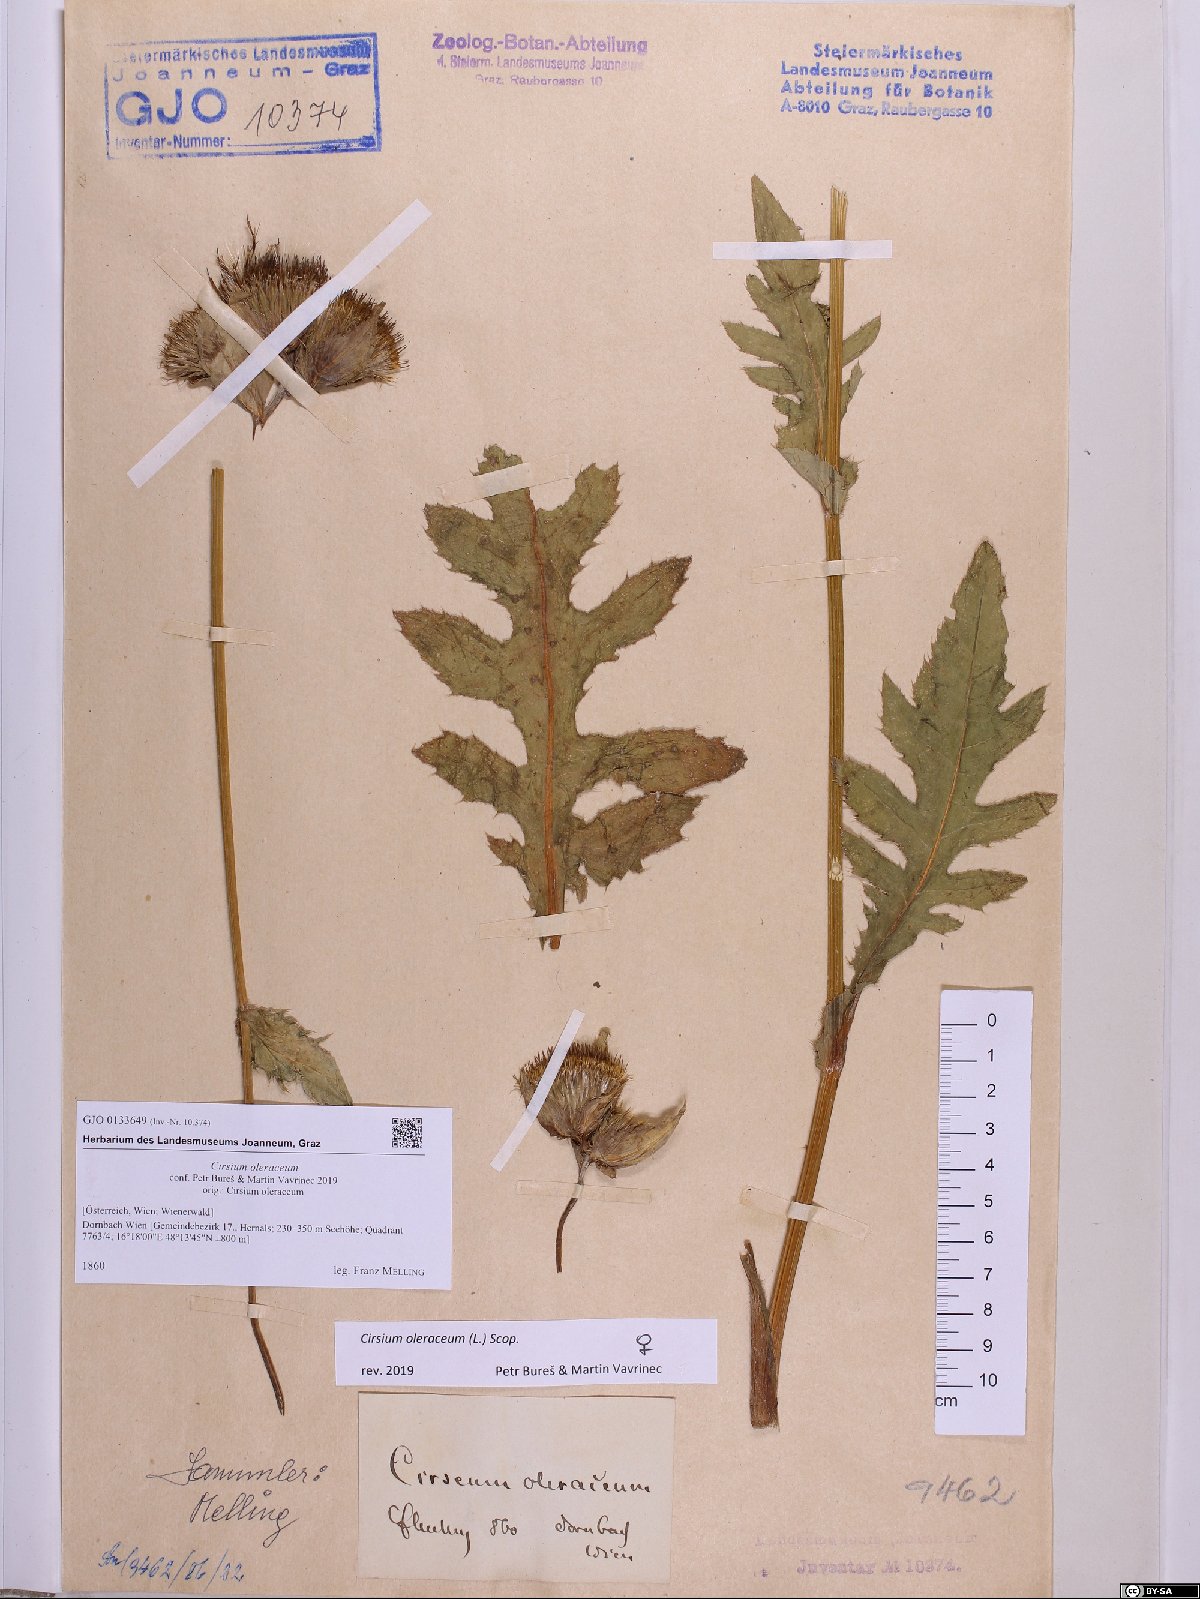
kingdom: Plantae
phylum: Tracheophyta
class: Magnoliopsida
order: Asterales
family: Asteraceae
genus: Cirsium
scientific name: Cirsium oleraceum
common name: Cabbage thistle
